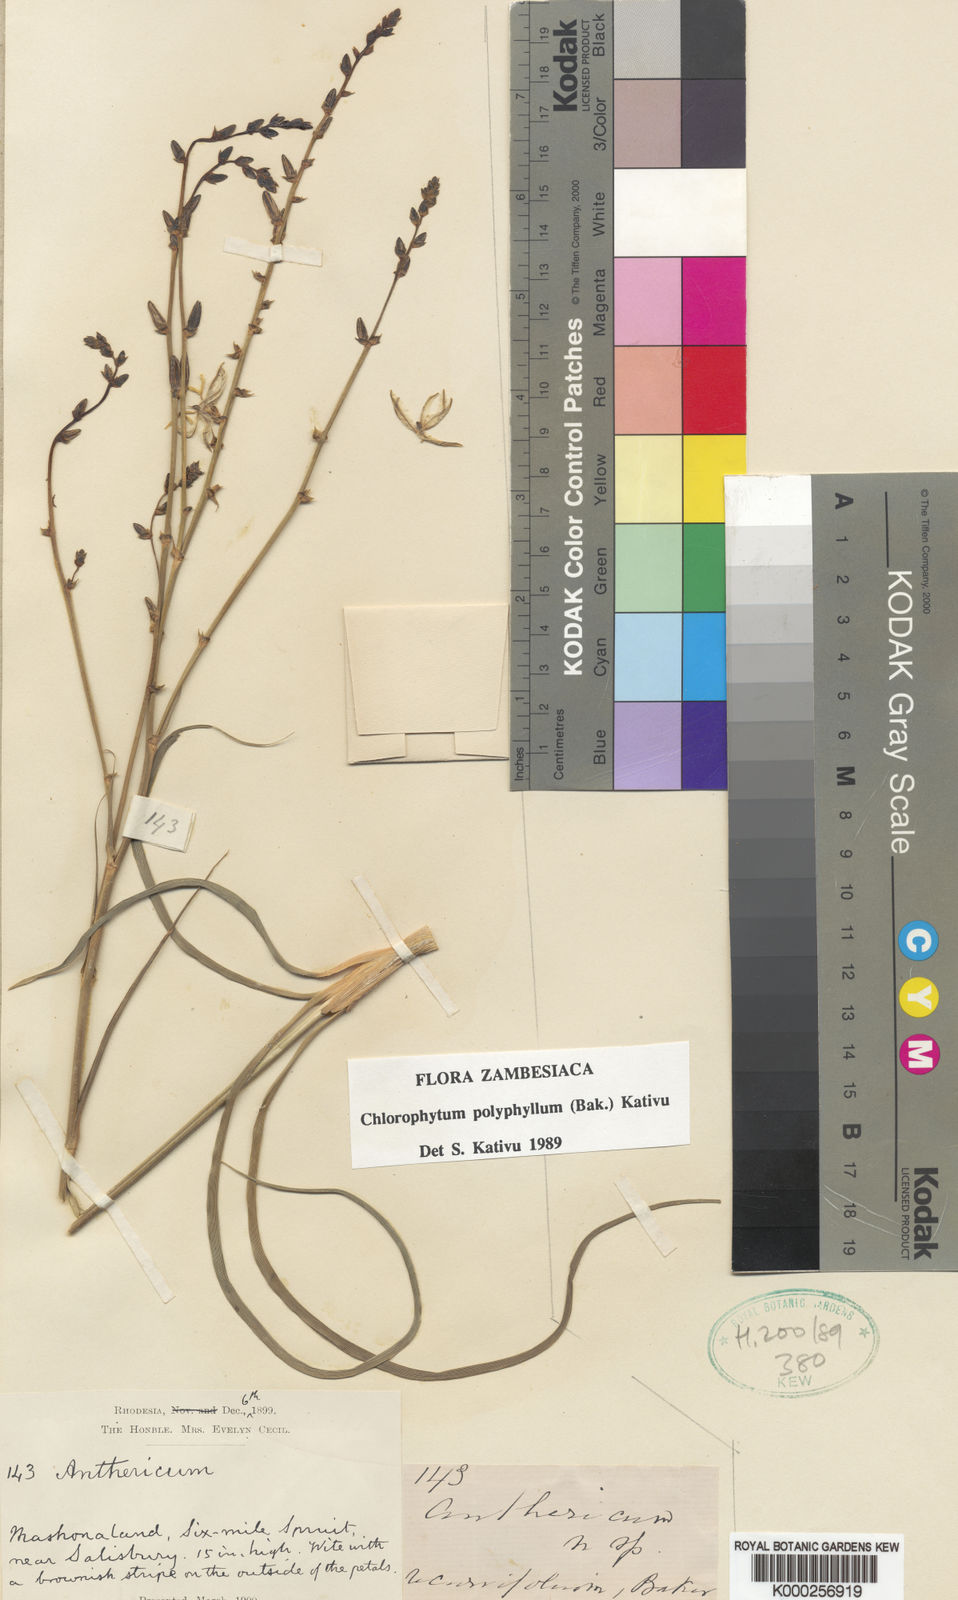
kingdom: Plantae
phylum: Tracheophyta
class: Liliopsida
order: Asparagales
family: Asparagaceae
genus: Chlorophytum
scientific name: Chlorophytum recurvifolium
